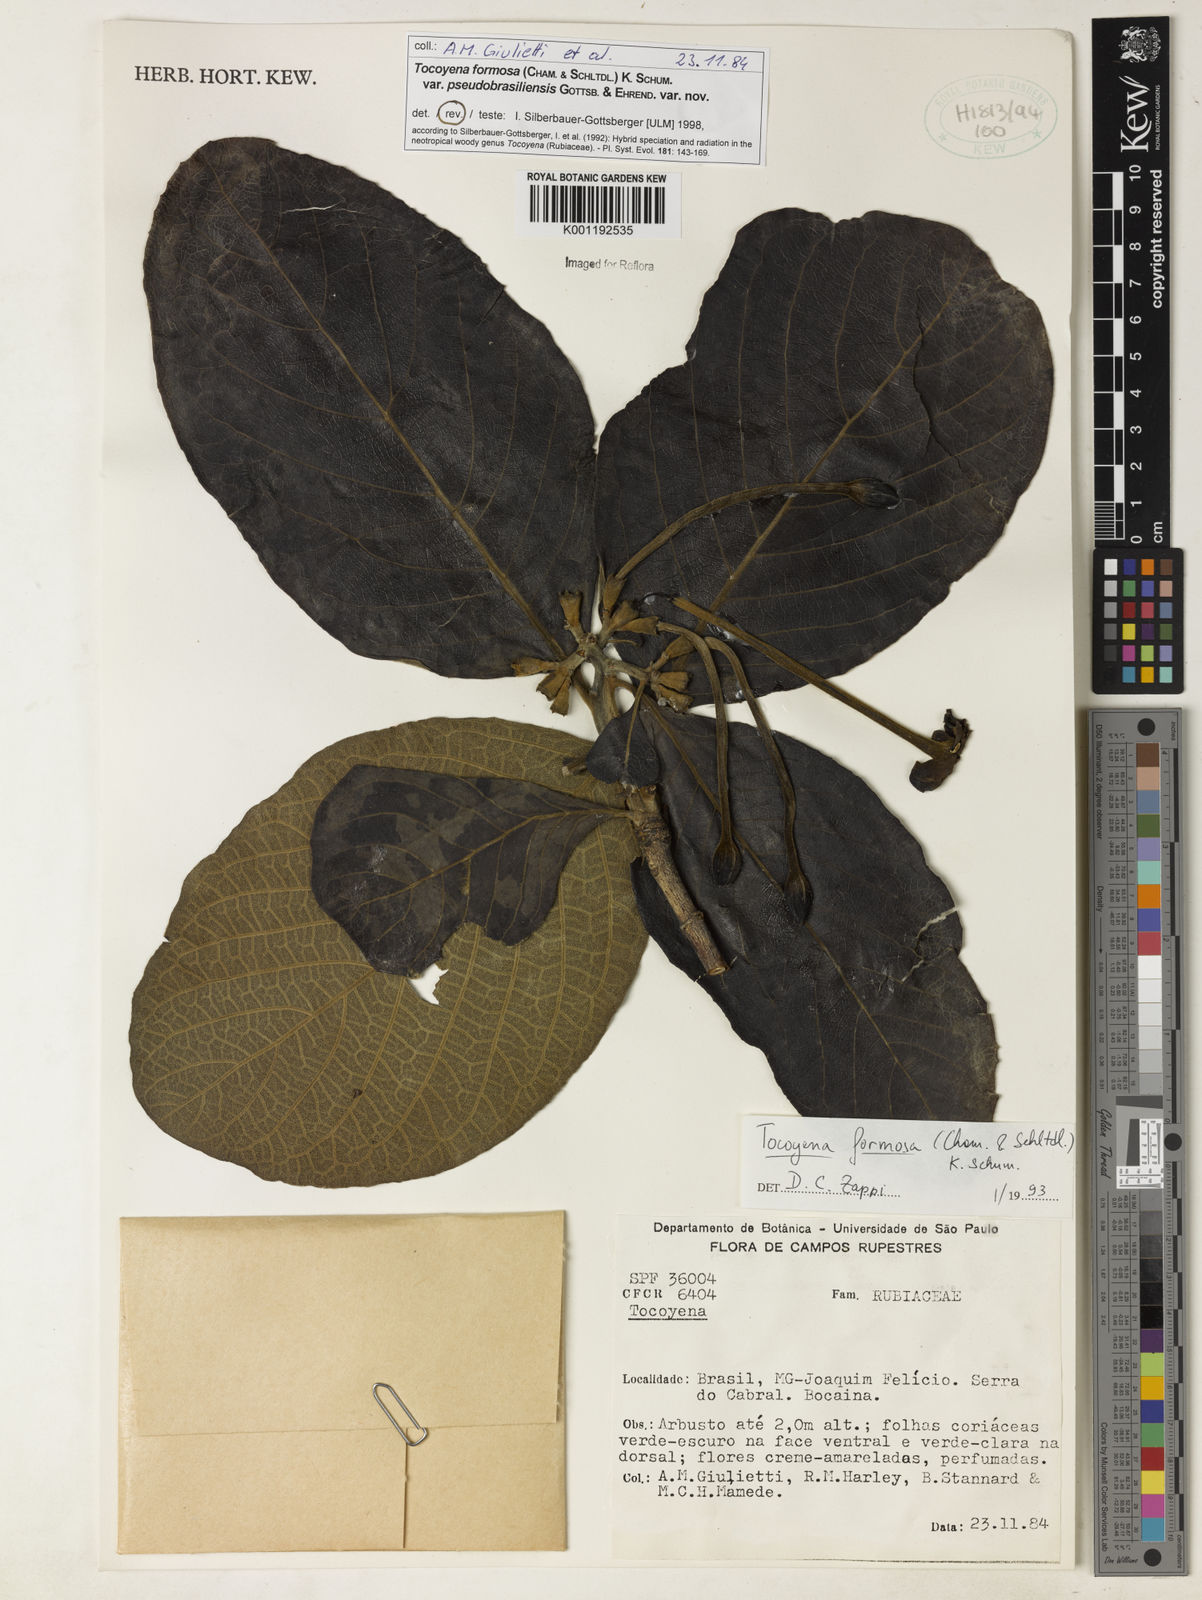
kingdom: Plantae
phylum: Tracheophyta
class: Magnoliopsida
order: Gentianales
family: Rubiaceae
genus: Tocoyena
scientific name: Tocoyena formosa
